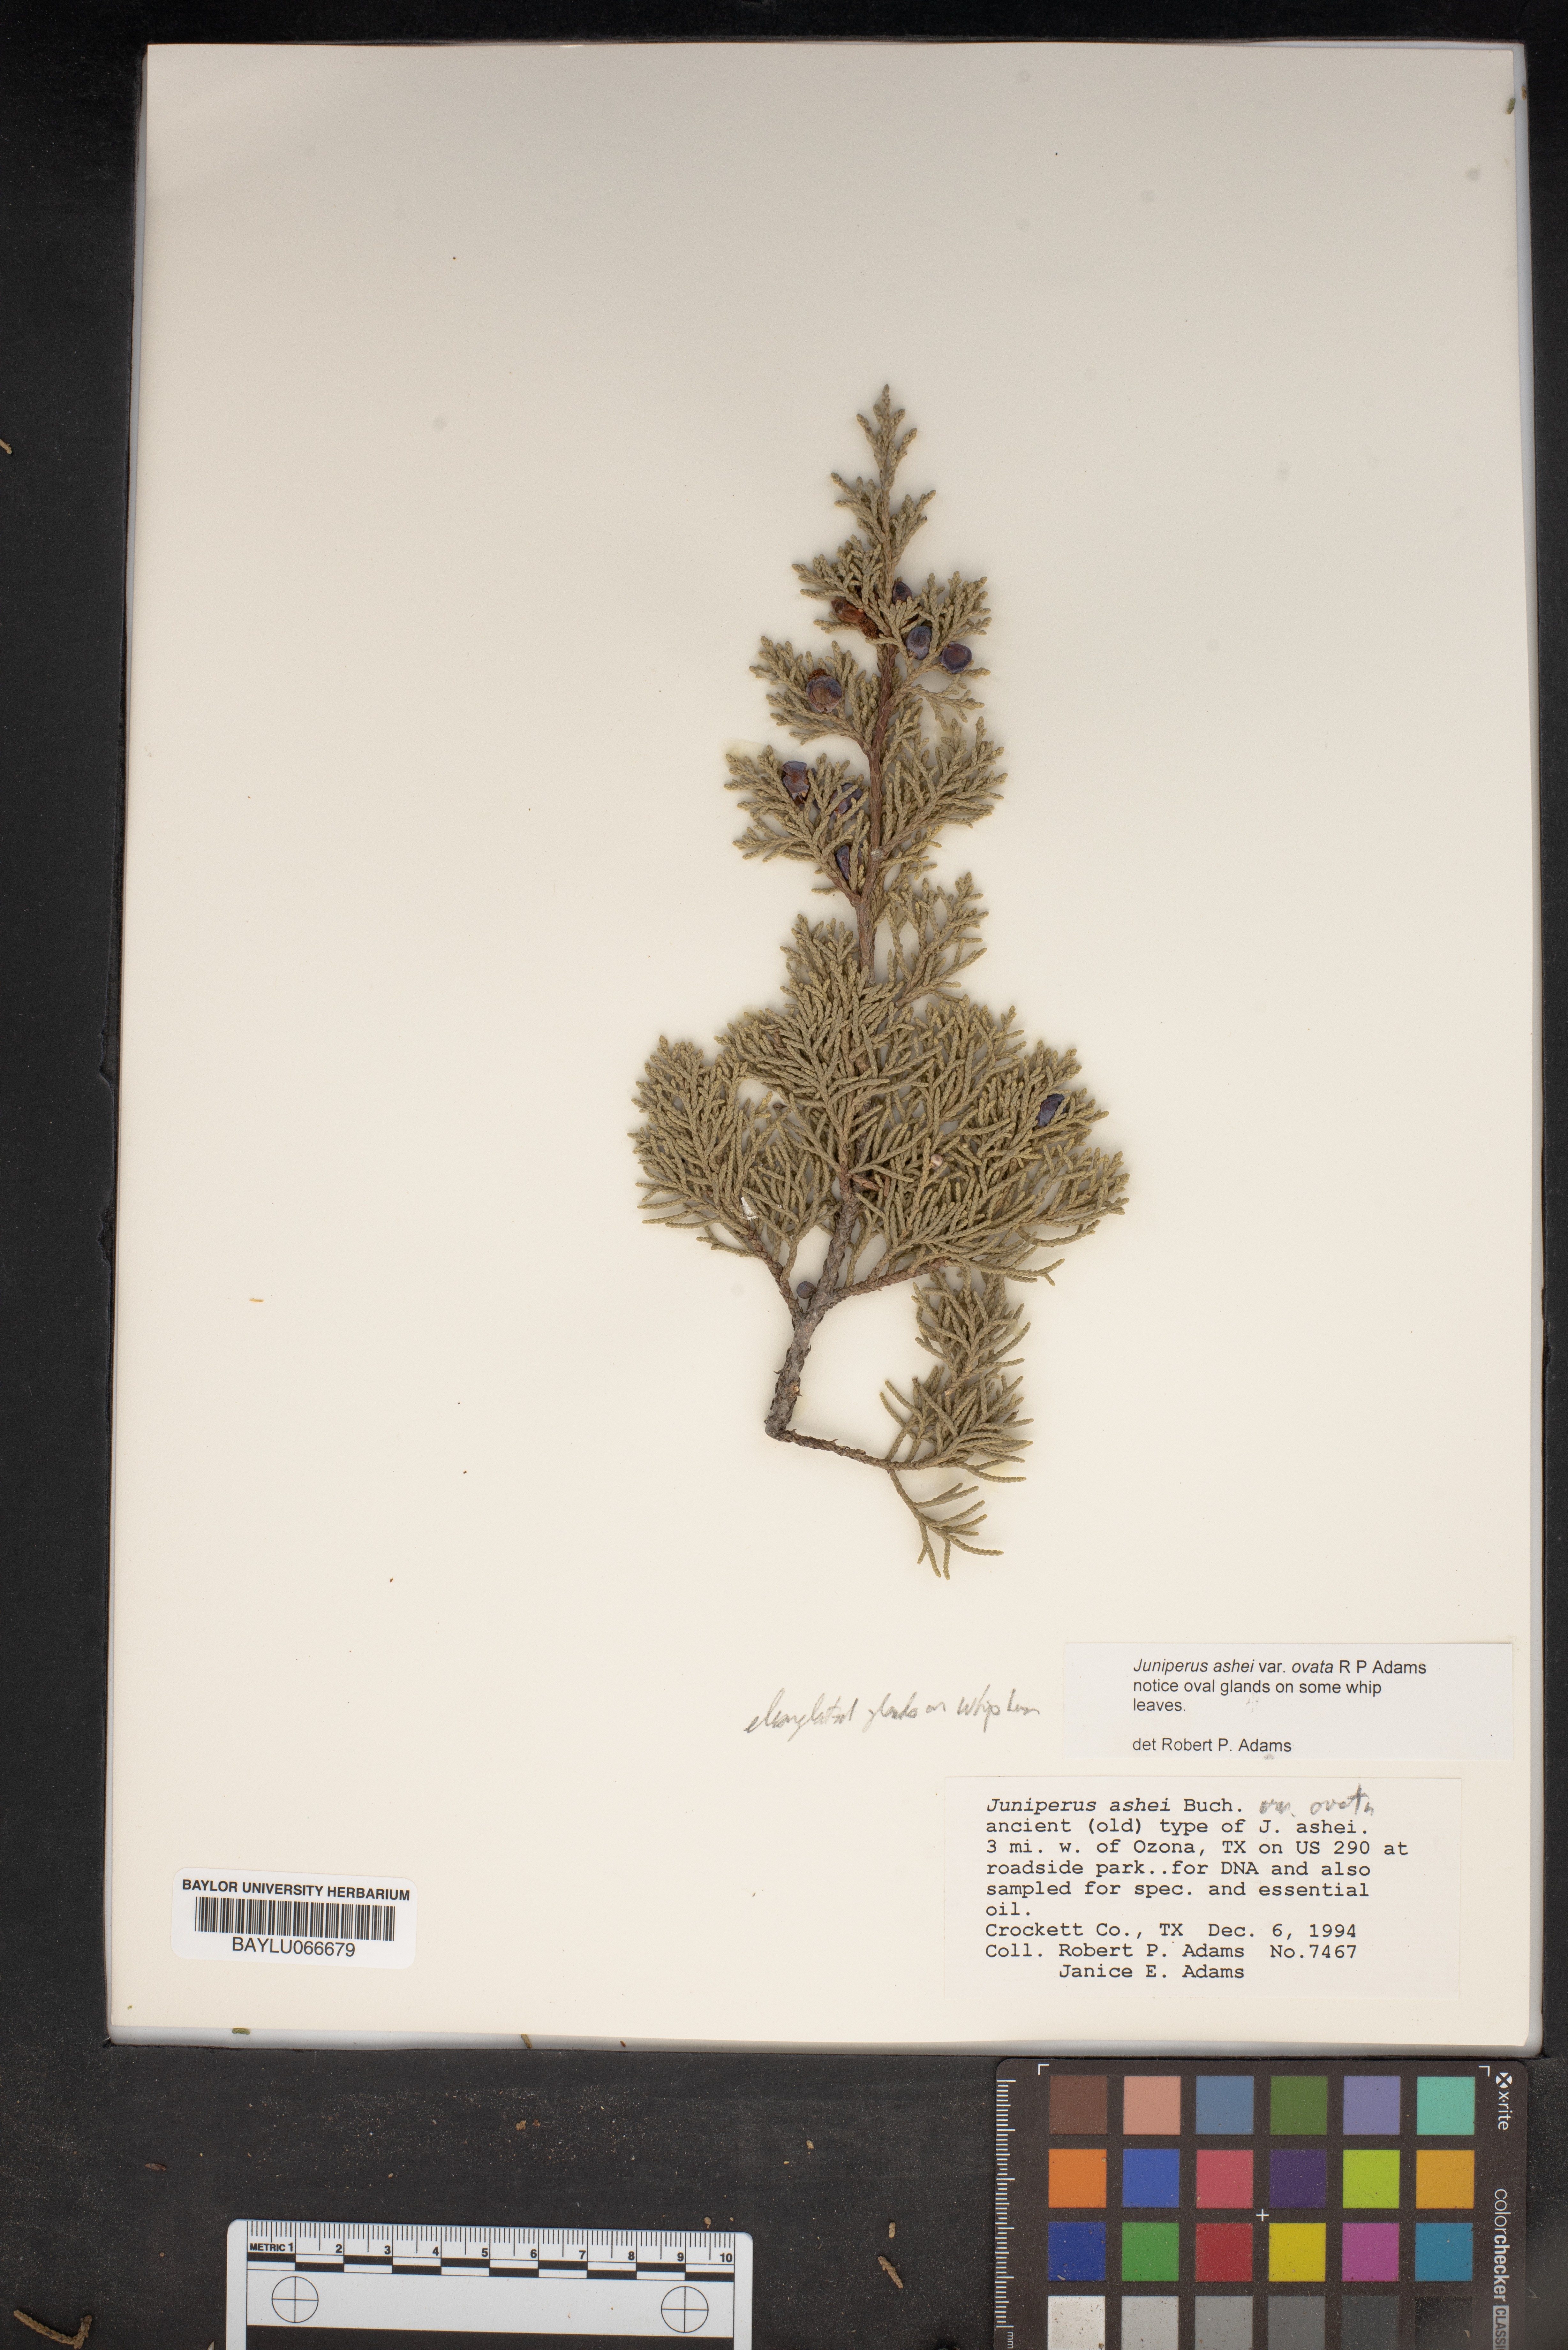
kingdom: Plantae
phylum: Tracheophyta
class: Pinopsida
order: Pinales
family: Cupressaceae
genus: Juniperus
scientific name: Juniperus ashei
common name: Mexican juniper
